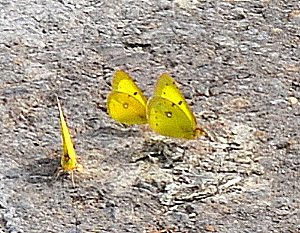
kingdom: Animalia
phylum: Arthropoda
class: Insecta
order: Lepidoptera
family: Pieridae
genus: Colias
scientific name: Colias philodice
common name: Clouded Sulphur
